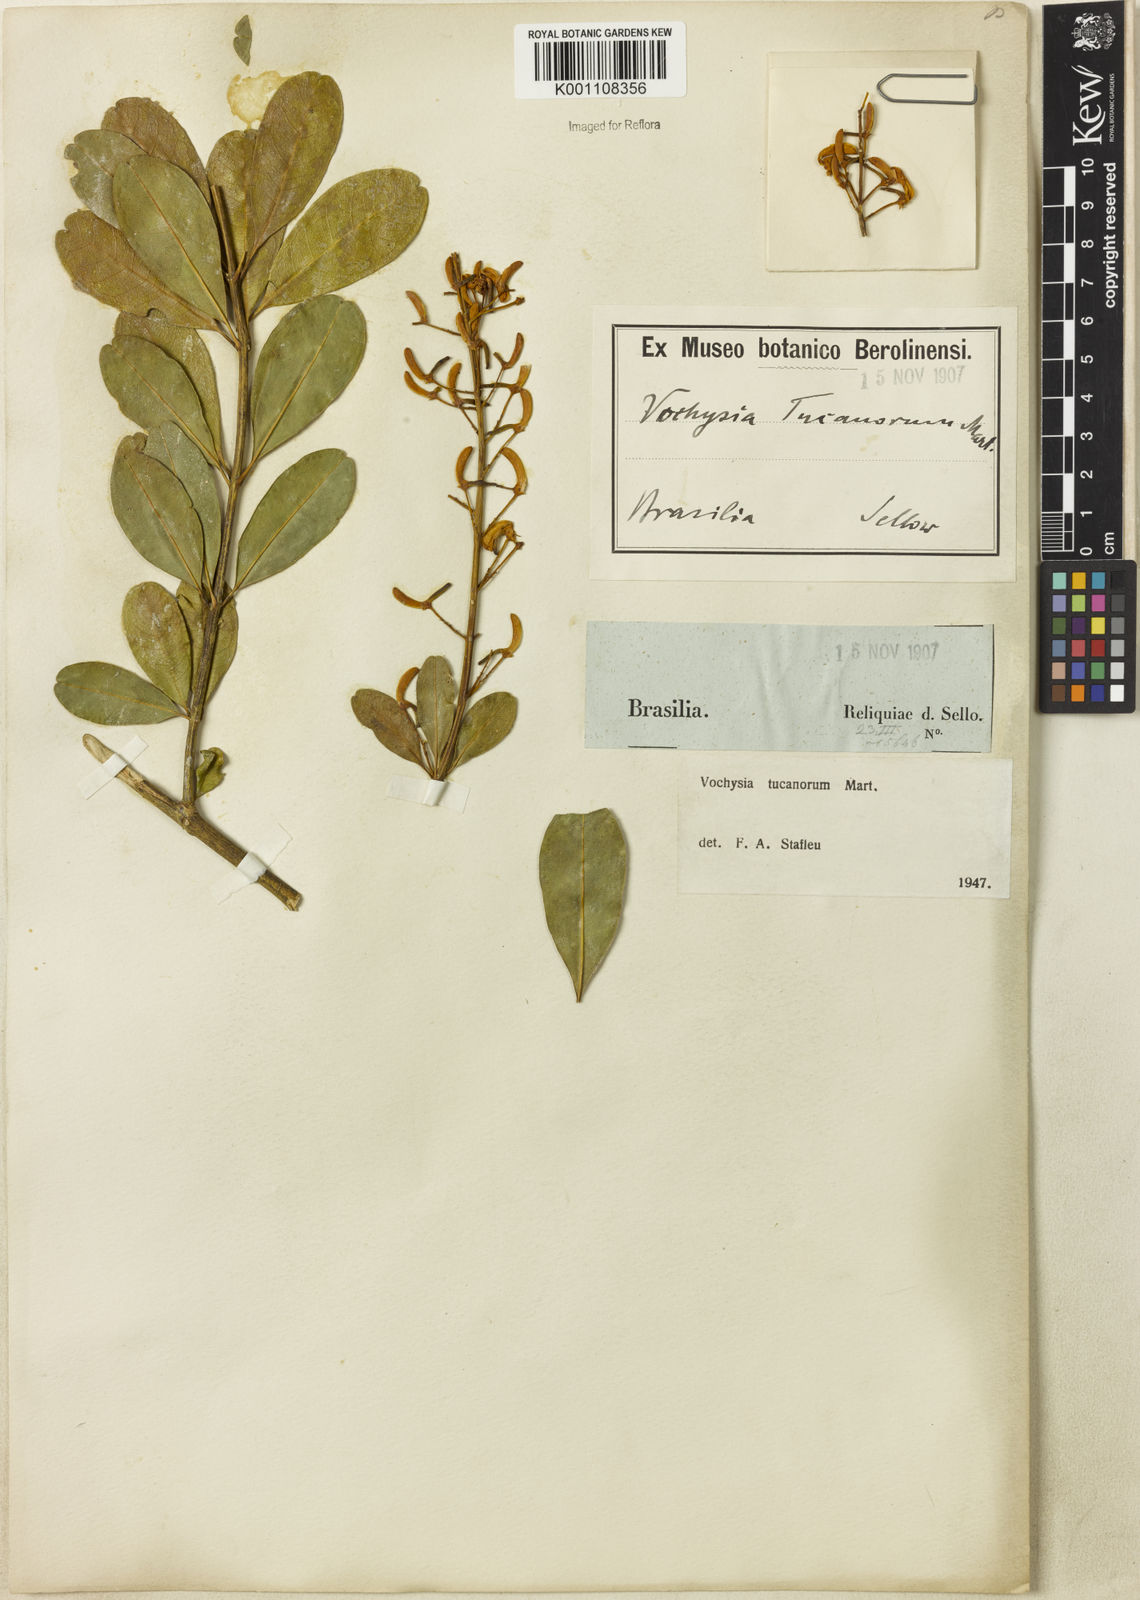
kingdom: Plantae
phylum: Tracheophyta
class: Magnoliopsida
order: Myrtales
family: Vochysiaceae
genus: Vochysia
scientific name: Vochysia tucanorum
